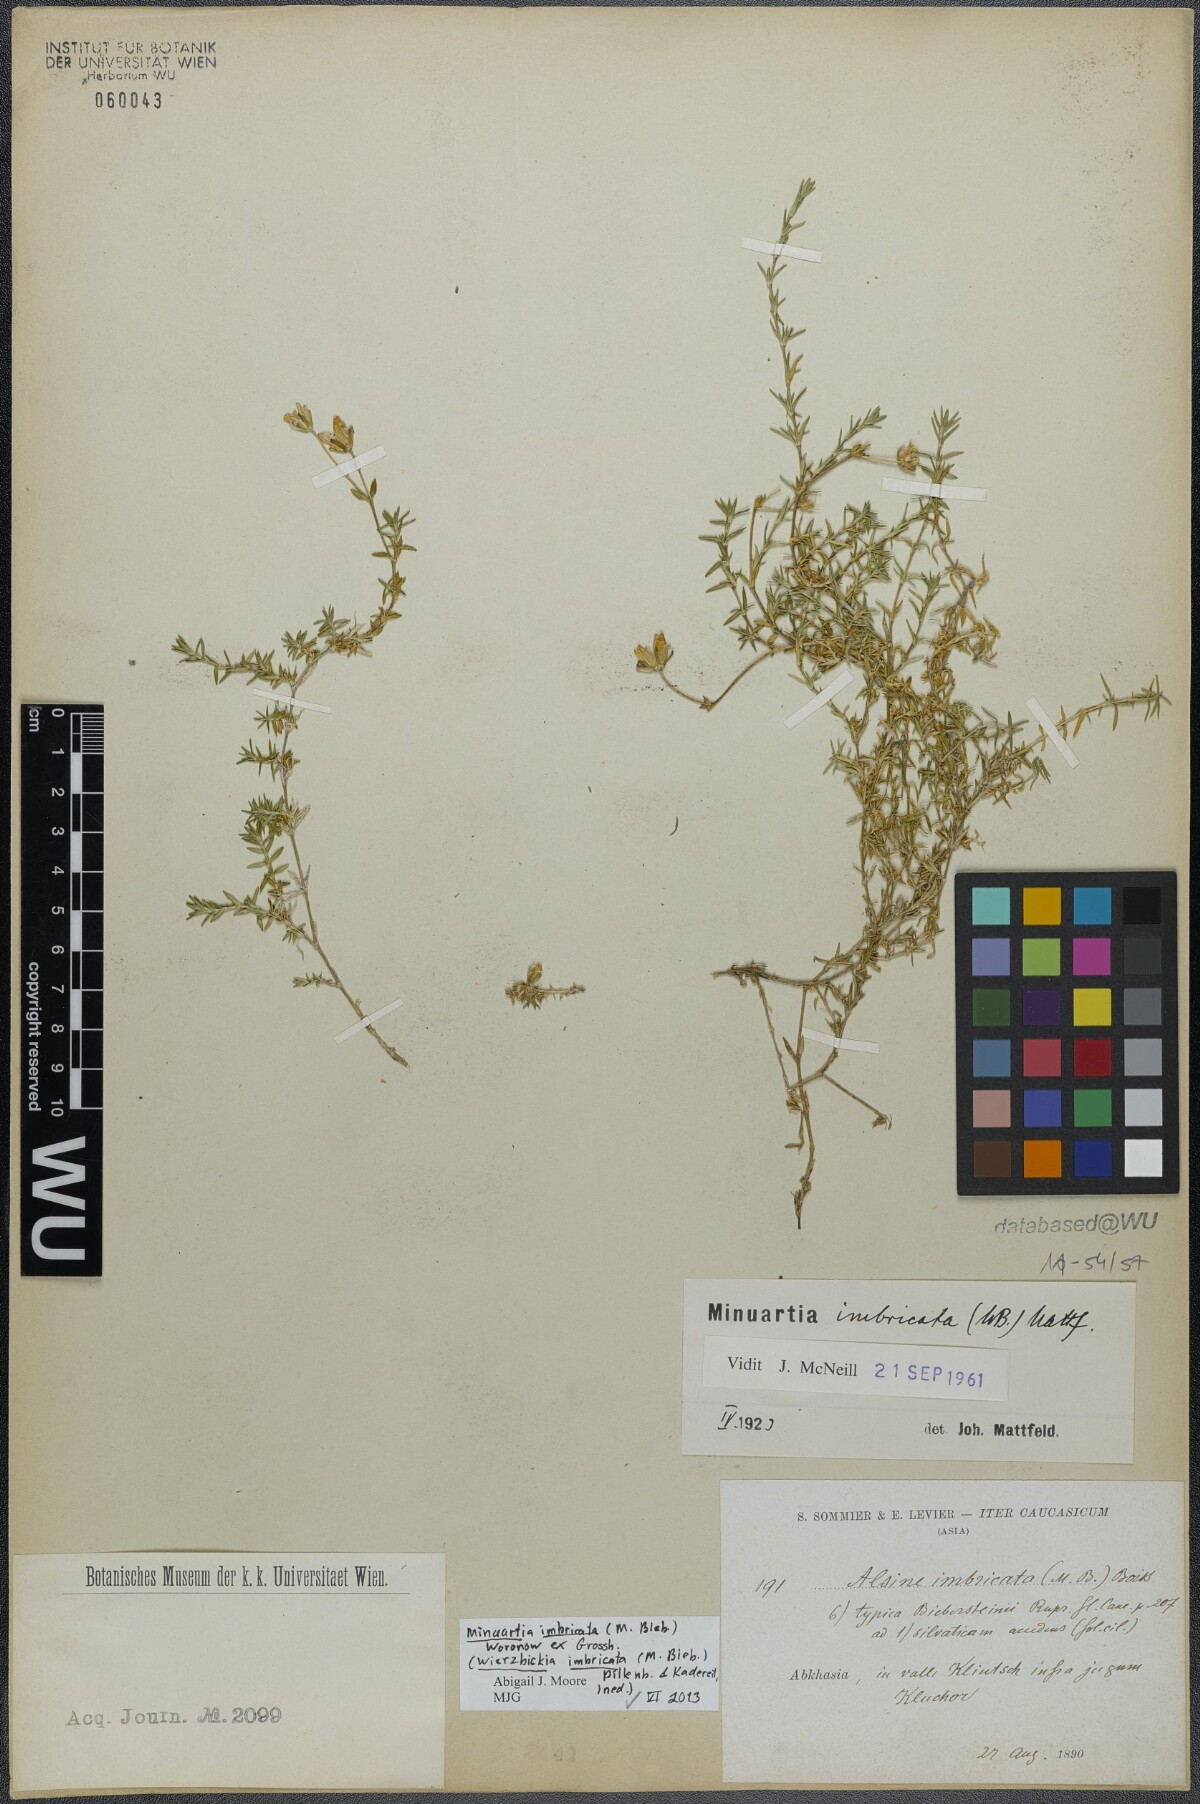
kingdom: Plantae
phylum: Tracheophyta
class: Magnoliopsida
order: Caryophyllales
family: Caryophyllaceae
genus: Pseudocherleria
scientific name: Pseudocherleria imbricata
